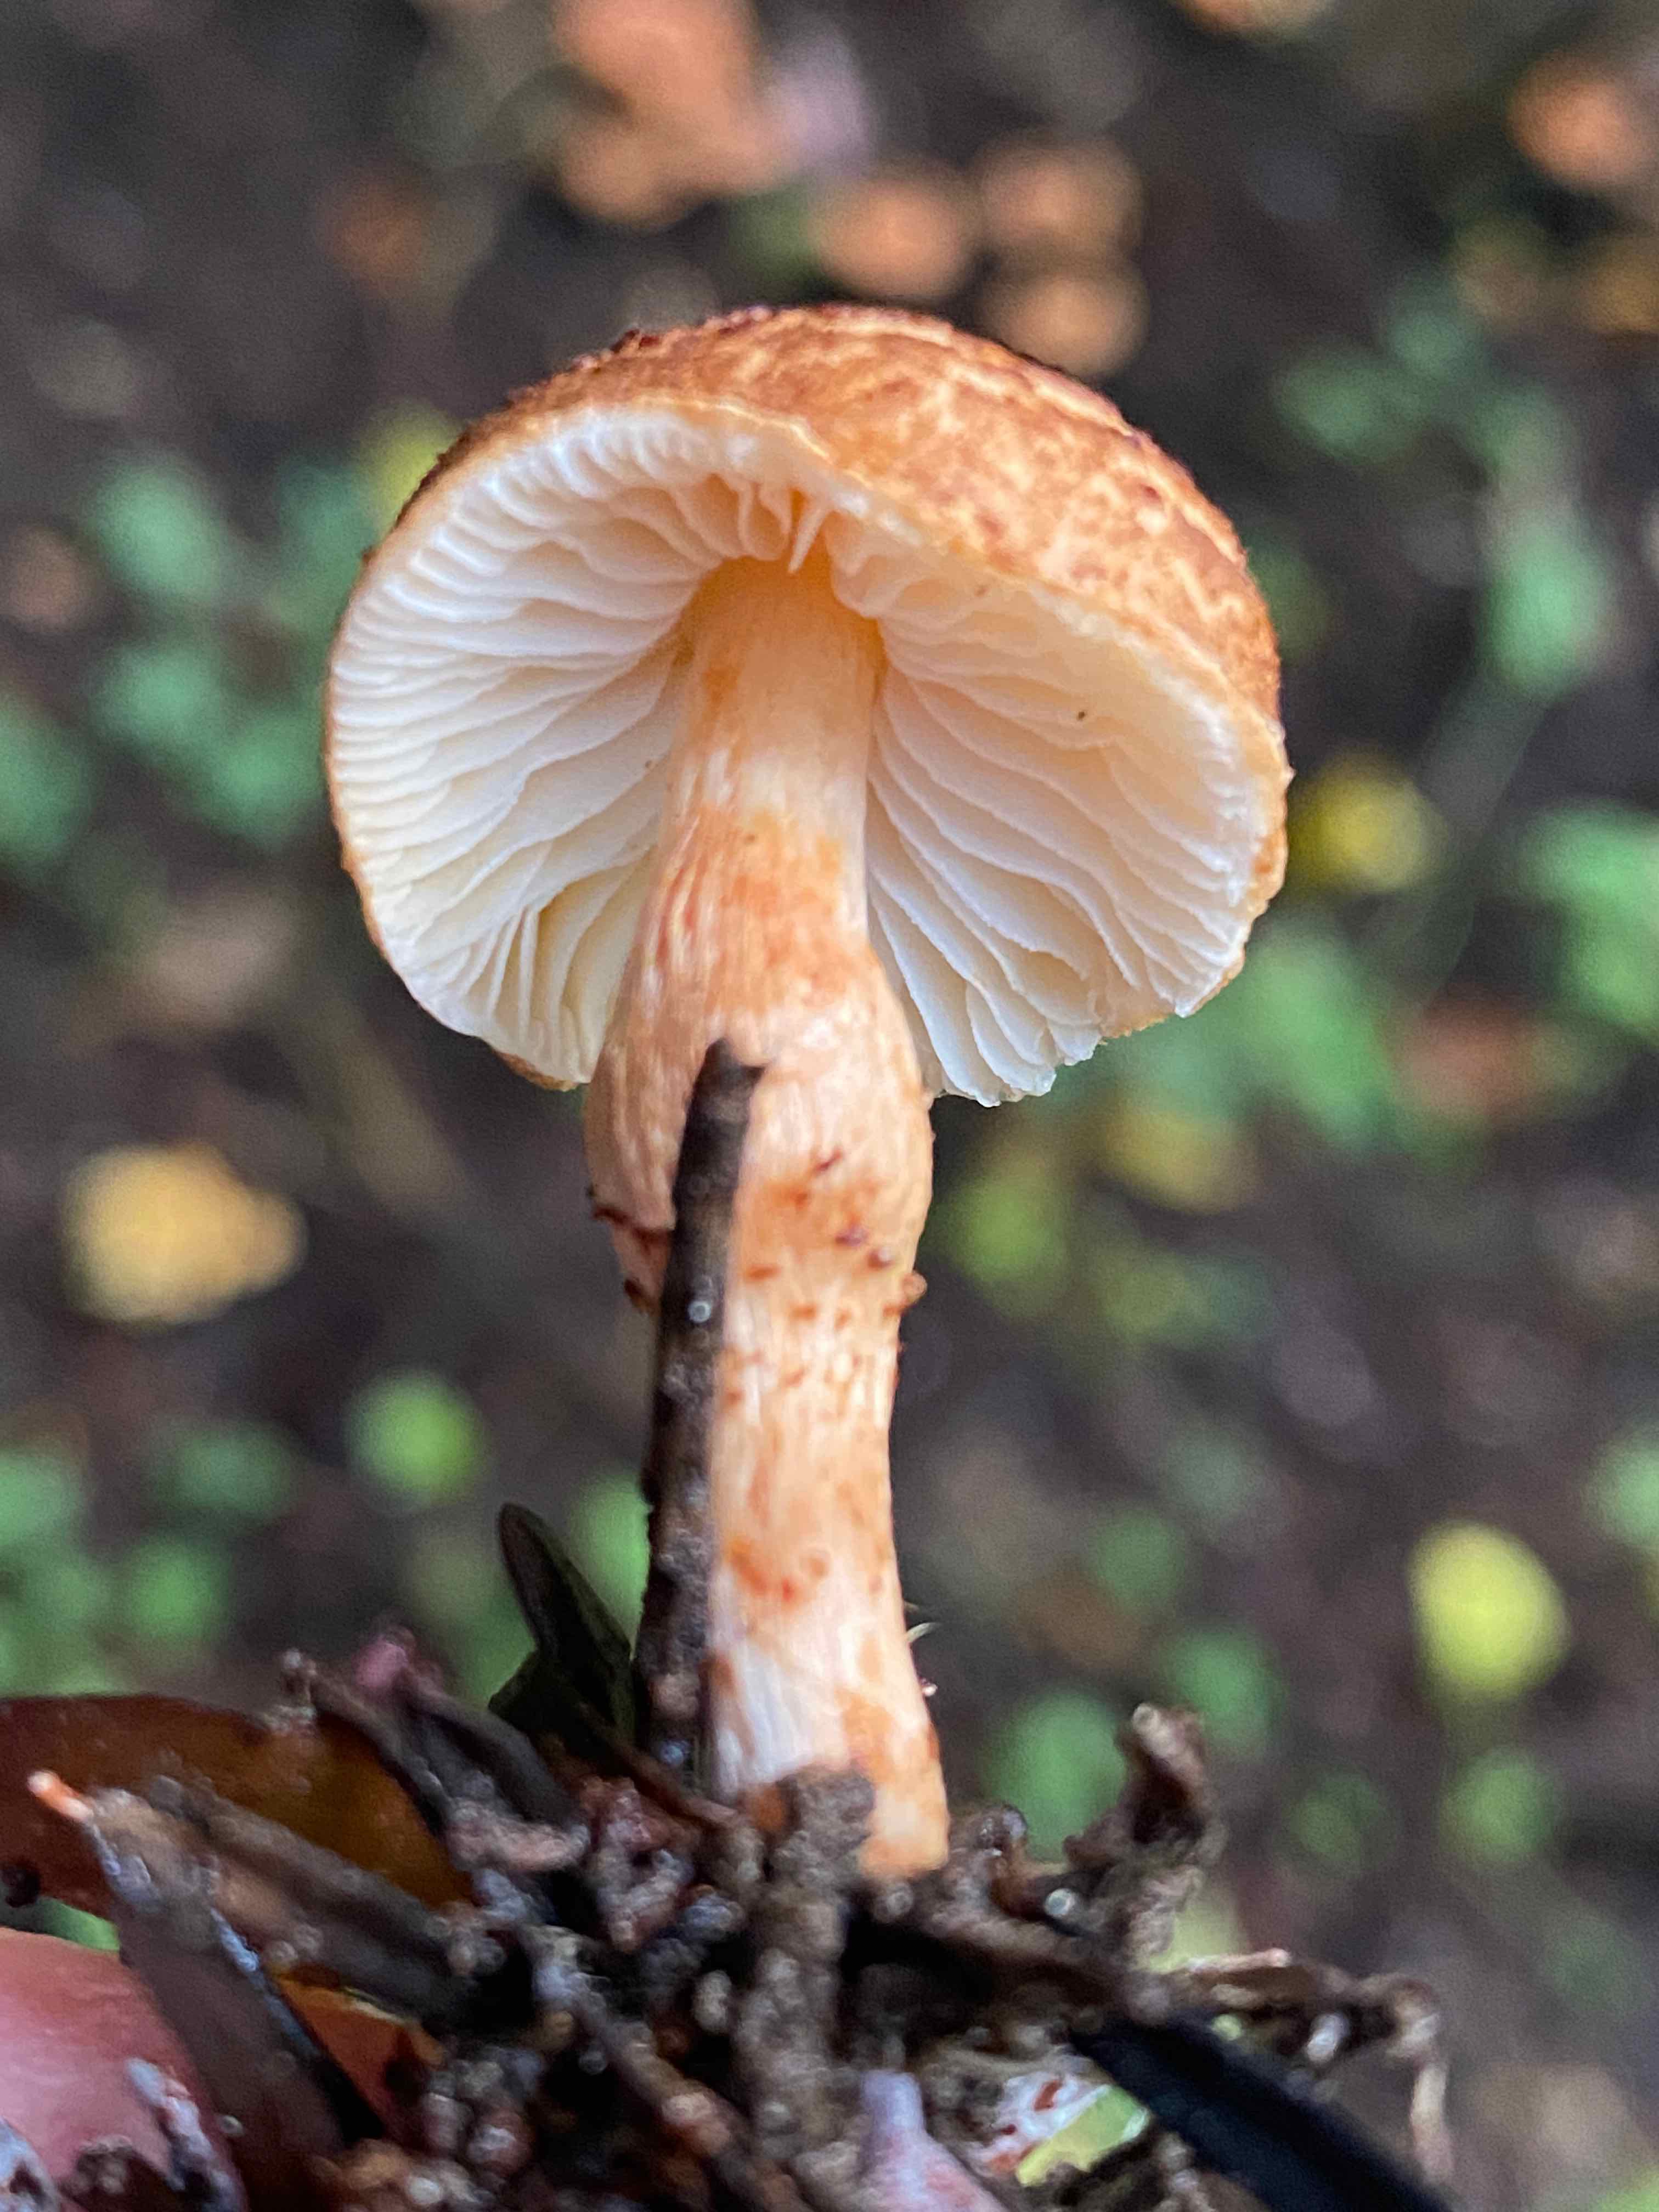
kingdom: Fungi
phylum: Basidiomycota
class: Agaricomycetes
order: Agaricales
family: Agaricaceae
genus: Lepiota
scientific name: Lepiota castanea
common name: kastaniebrun parasolhat
